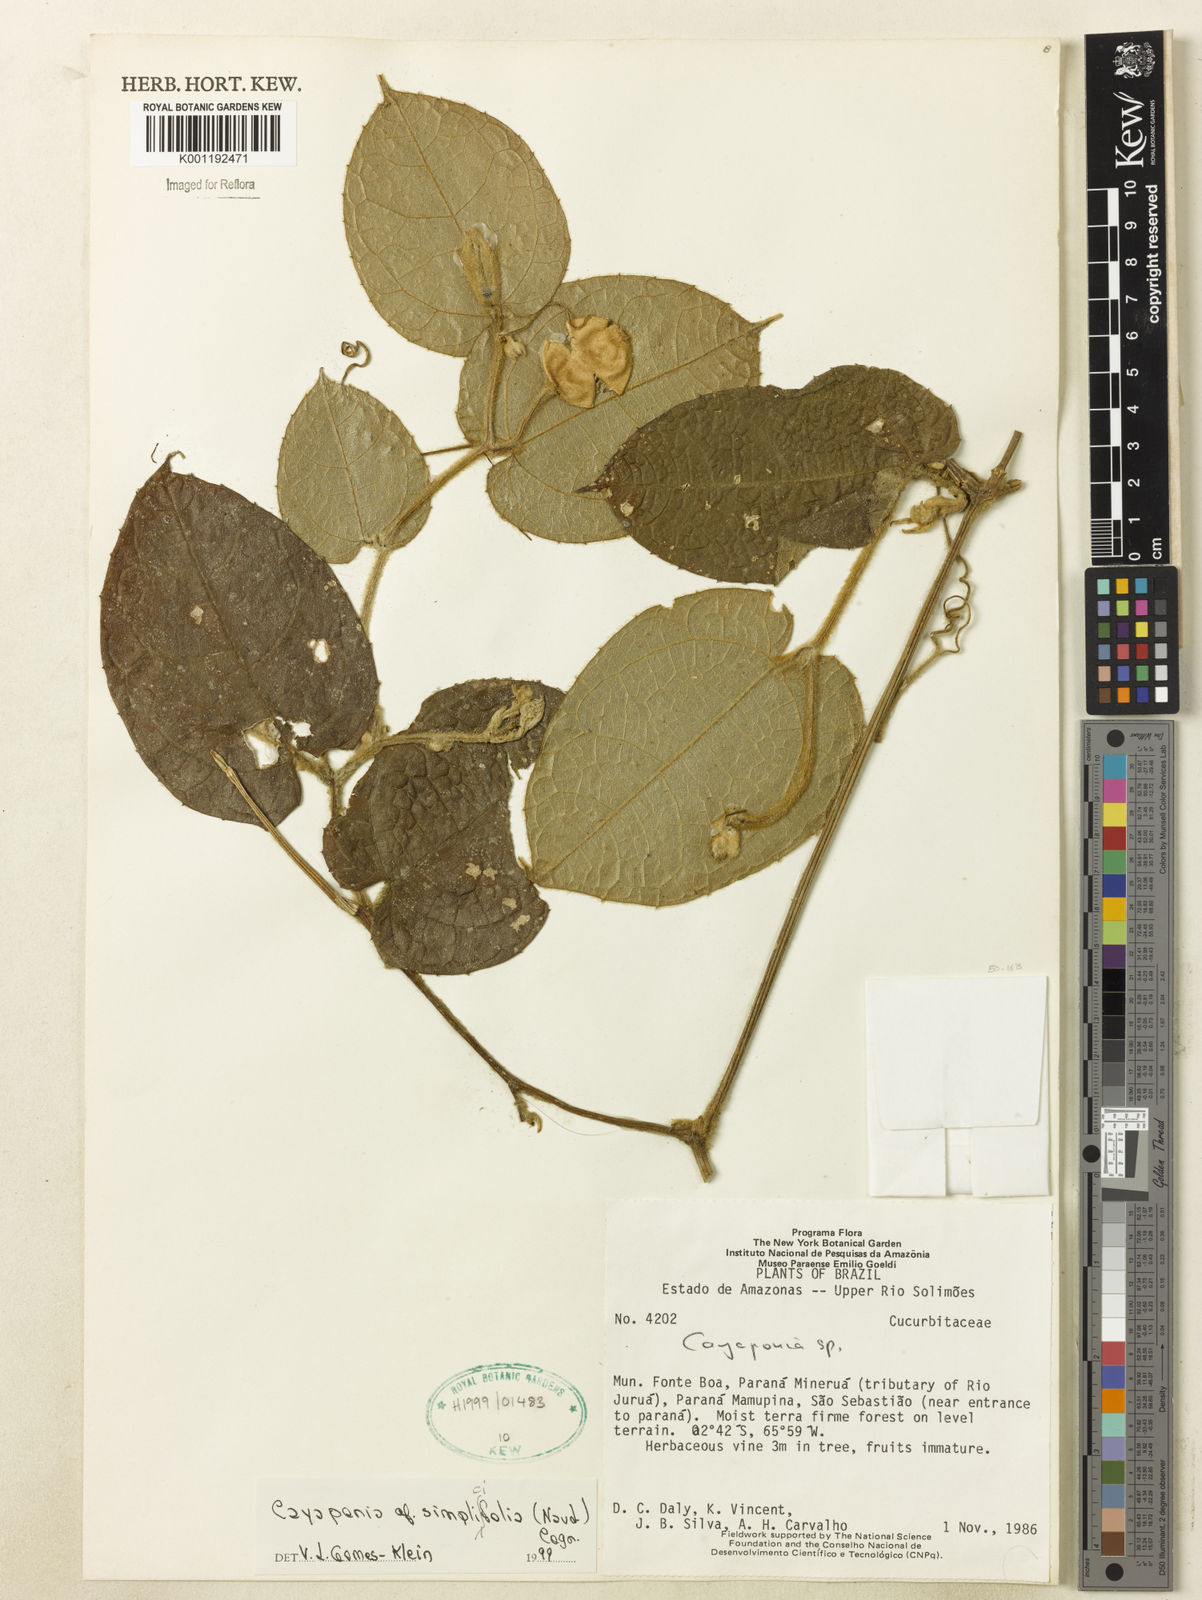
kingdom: Plantae
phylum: Tracheophyta
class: Magnoliopsida
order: Cucurbitales
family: Cucurbitaceae
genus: Cayaponia
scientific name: Cayaponia simplicifolia
